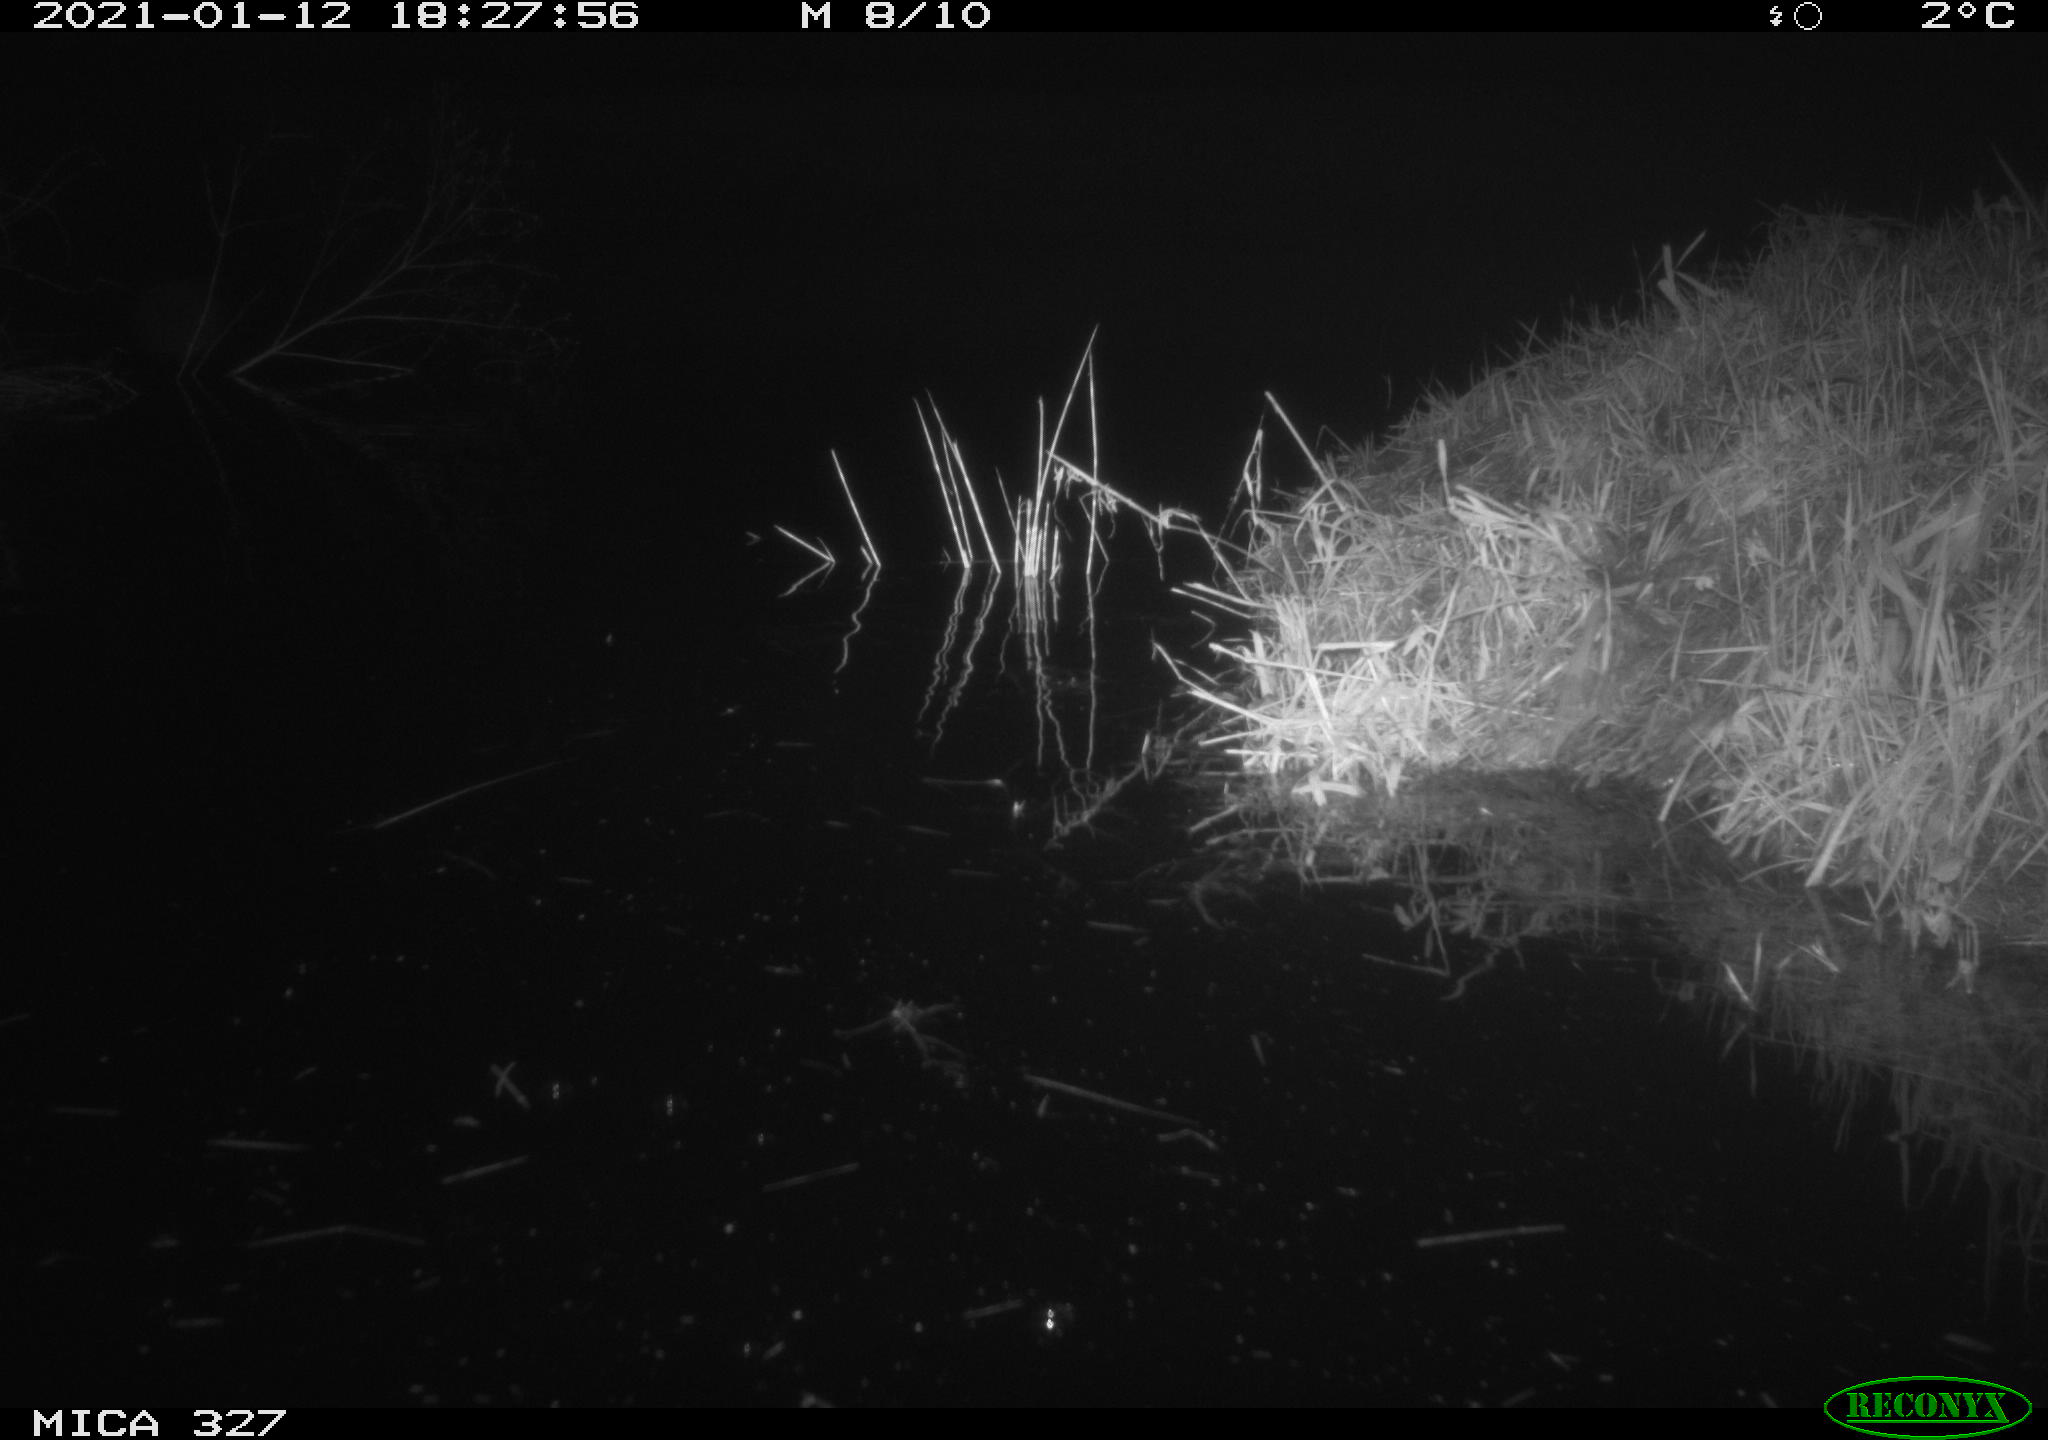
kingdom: Animalia
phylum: Chordata
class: Mammalia
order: Rodentia
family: Cricetidae
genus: Ondatra
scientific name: Ondatra zibethicus
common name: Muskrat
